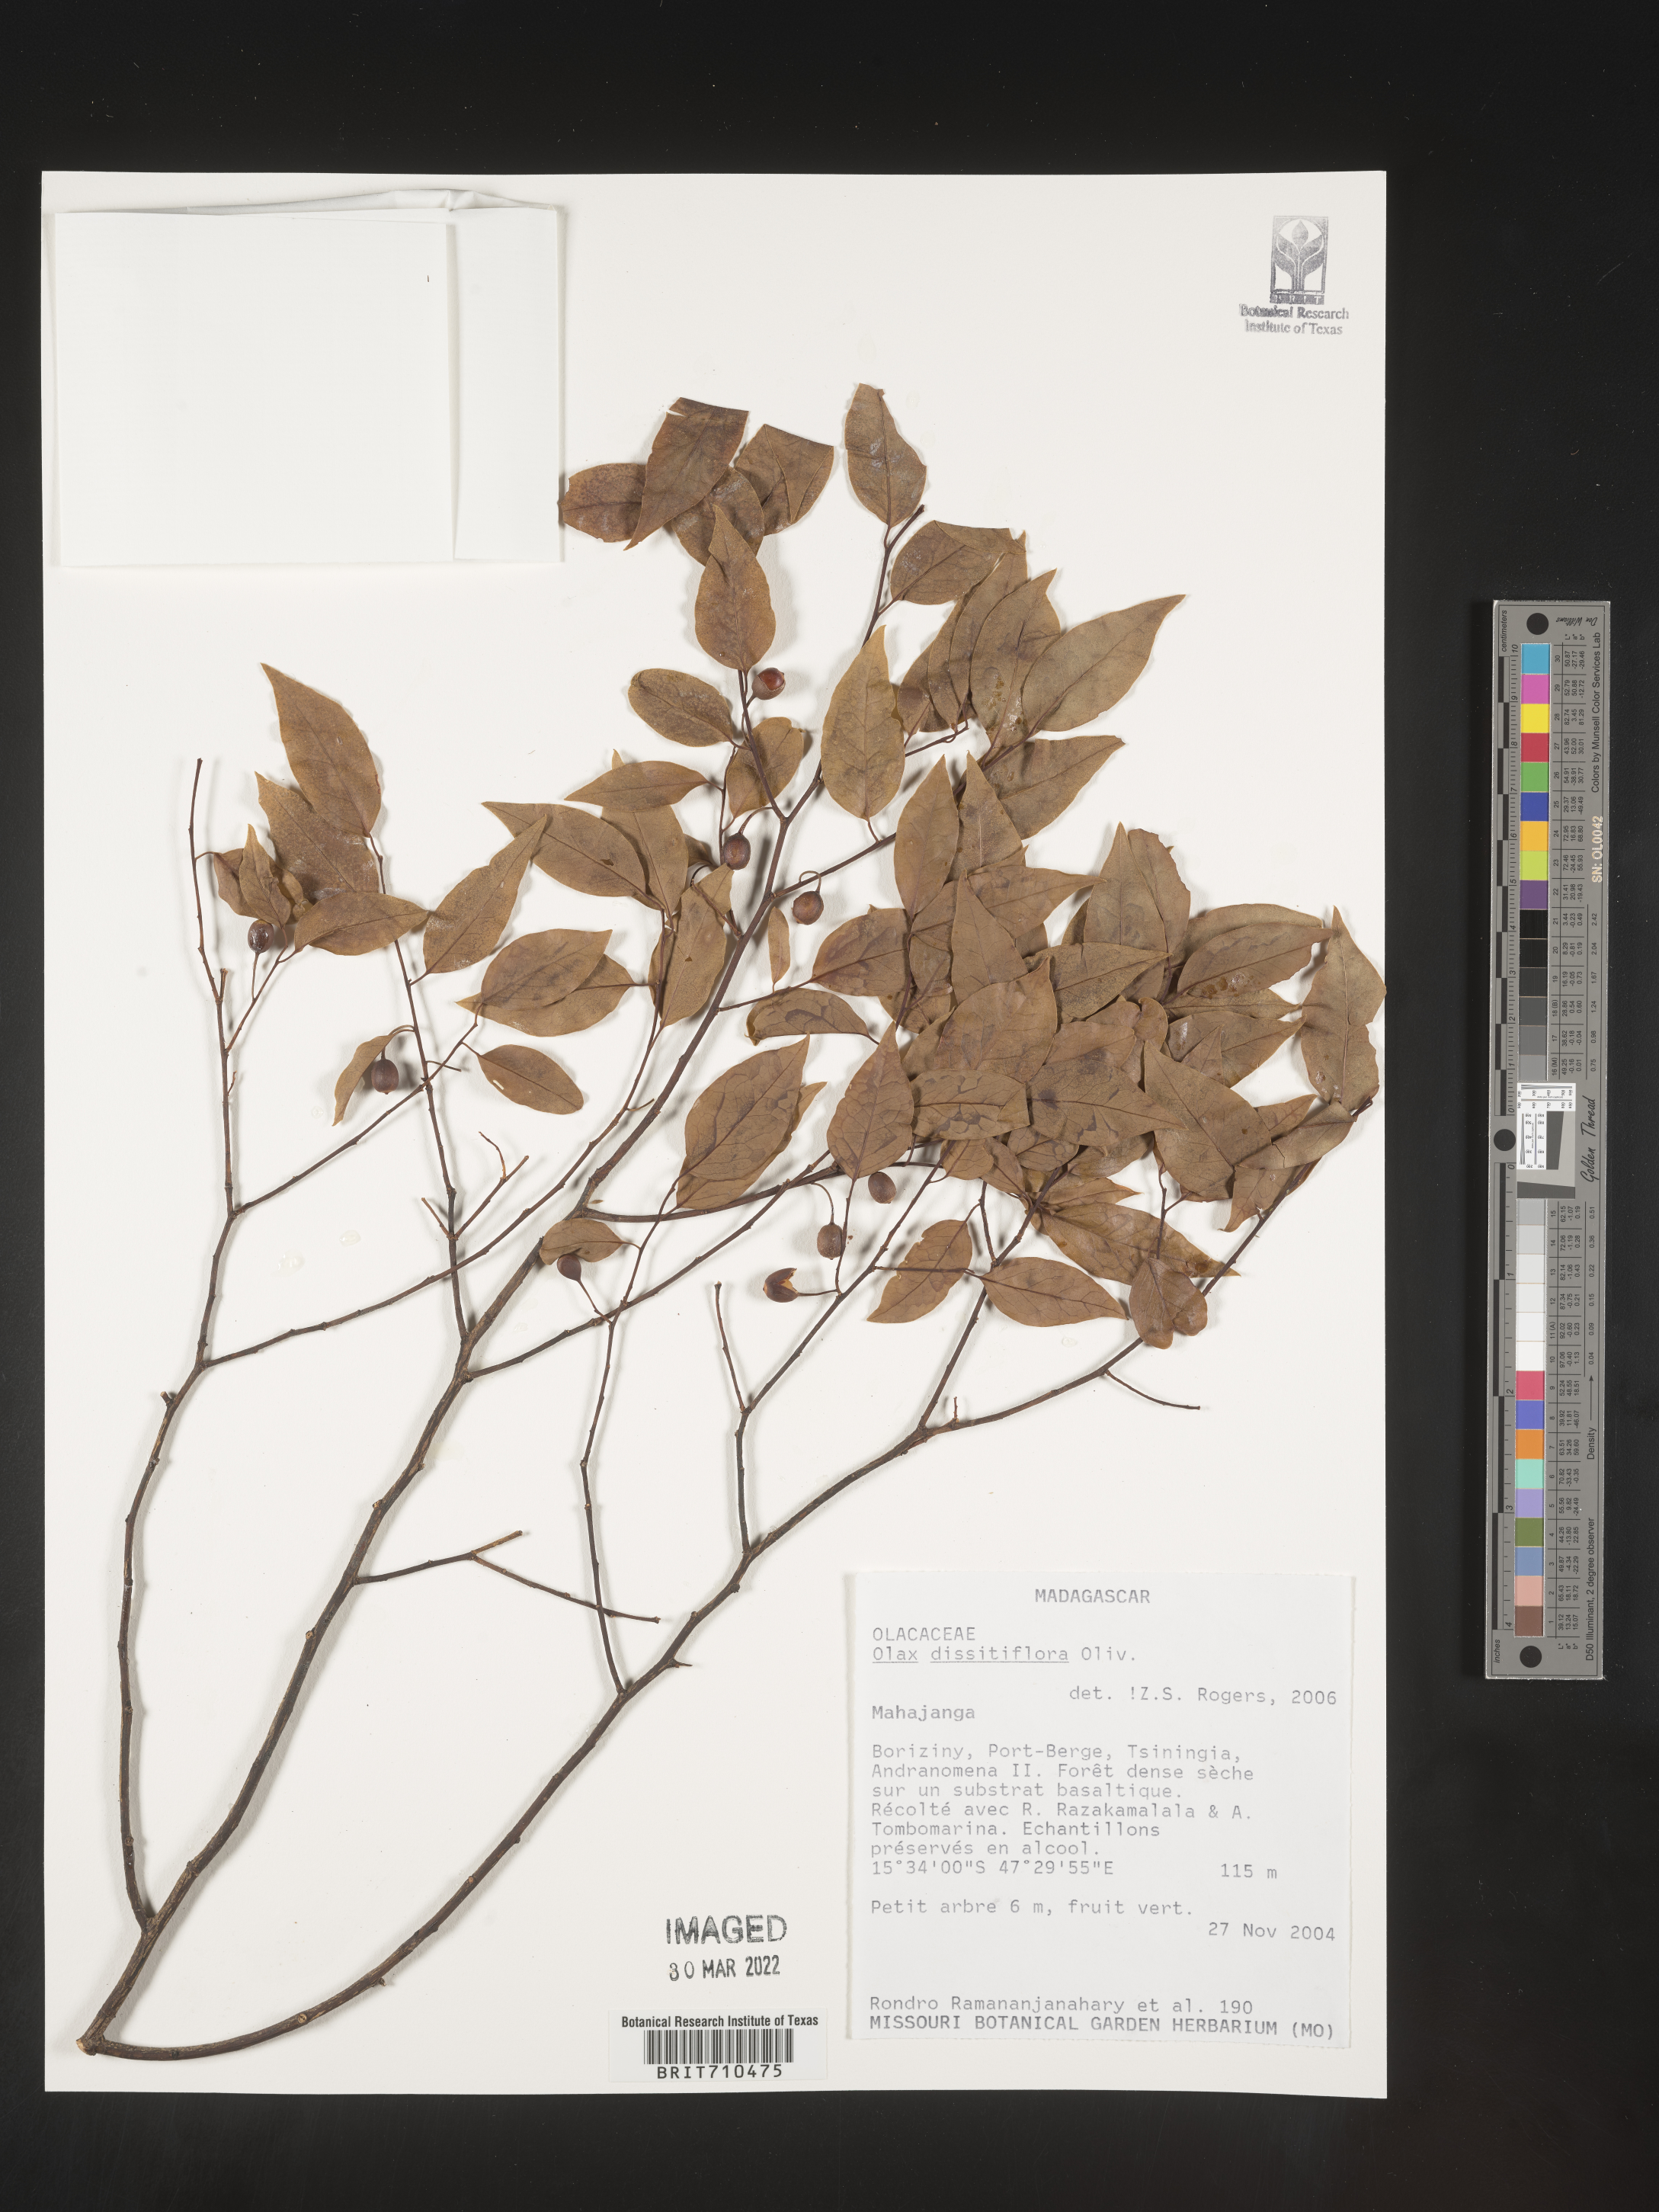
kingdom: Plantae
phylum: Tracheophyta
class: Magnoliopsida
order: Santalales
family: Olacaceae
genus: Olax
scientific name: Olax
